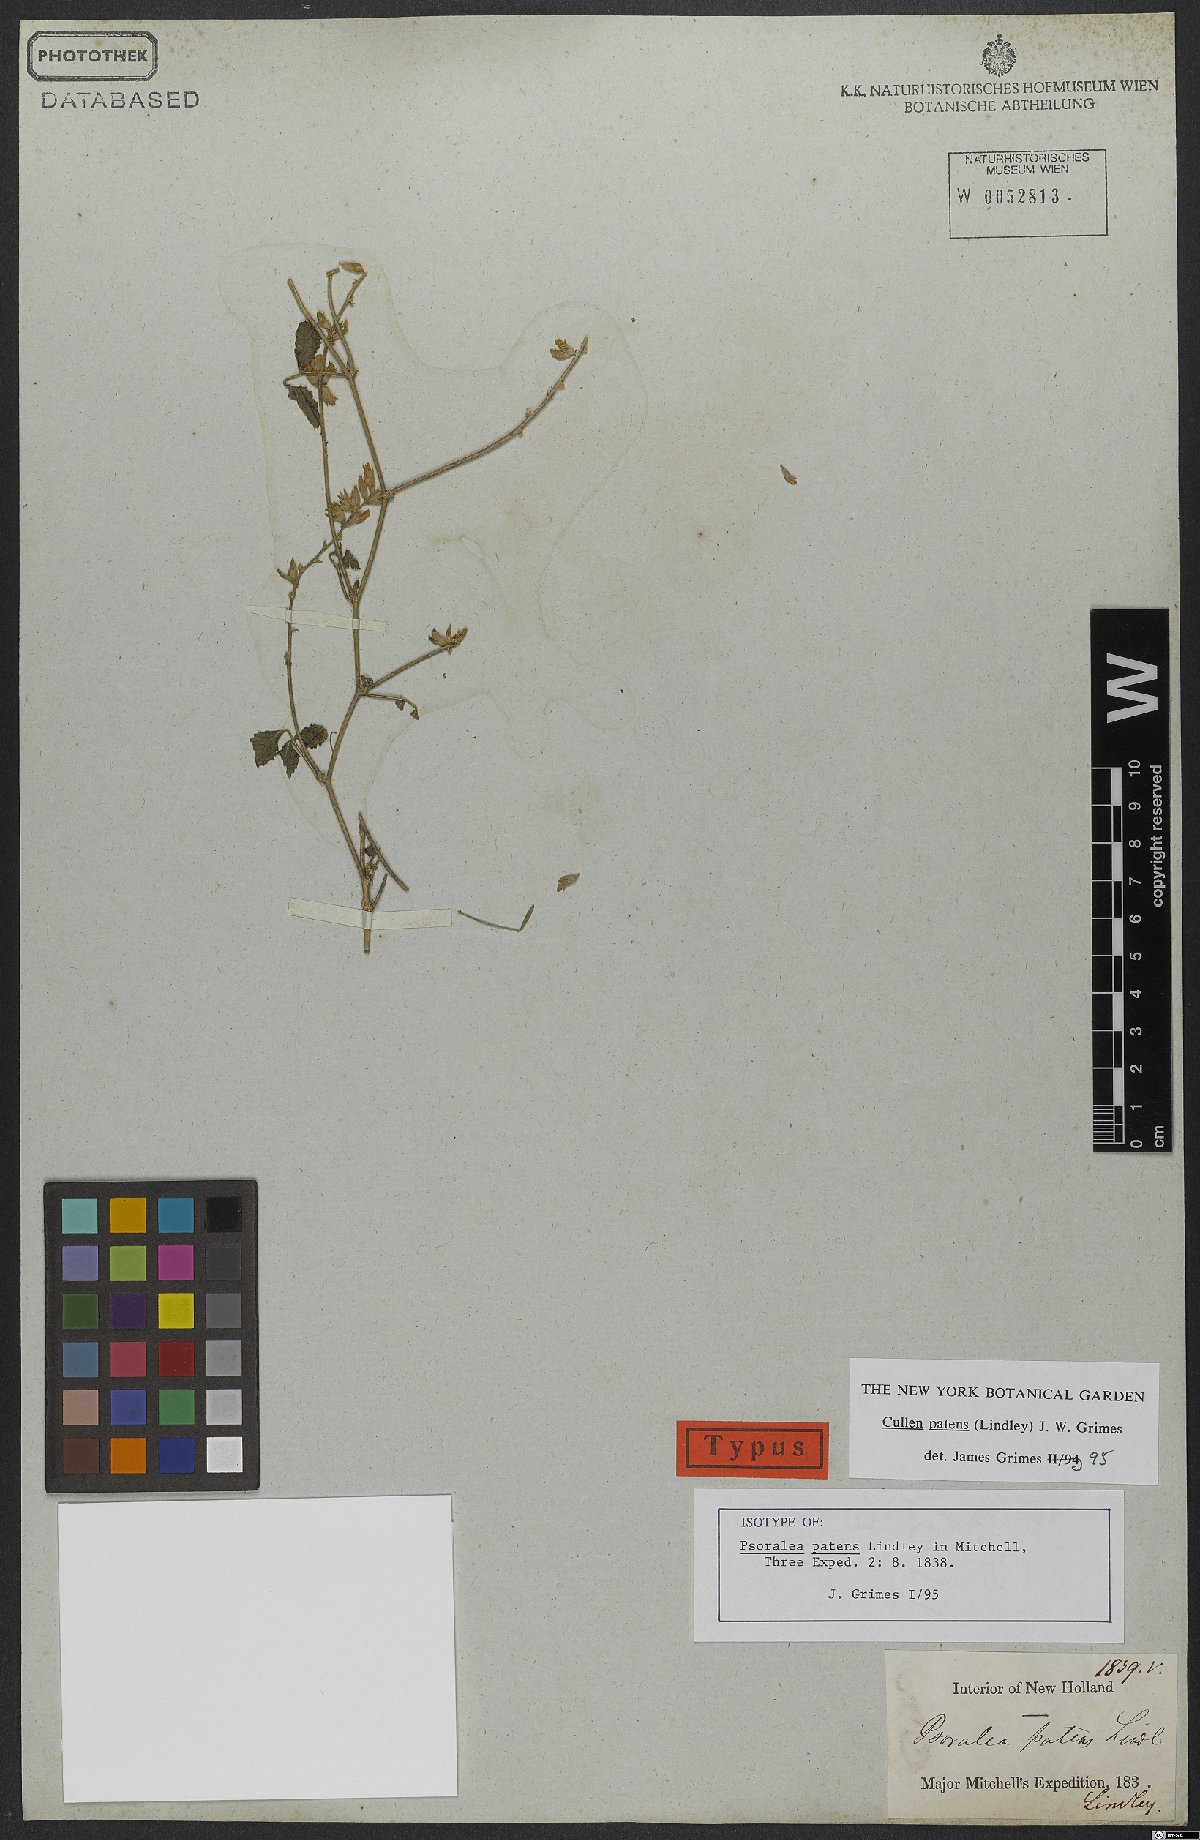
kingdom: Plantae
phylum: Tracheophyta
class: Magnoliopsida
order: Fabales
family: Fabaceae
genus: Cullen
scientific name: Cullen patens
